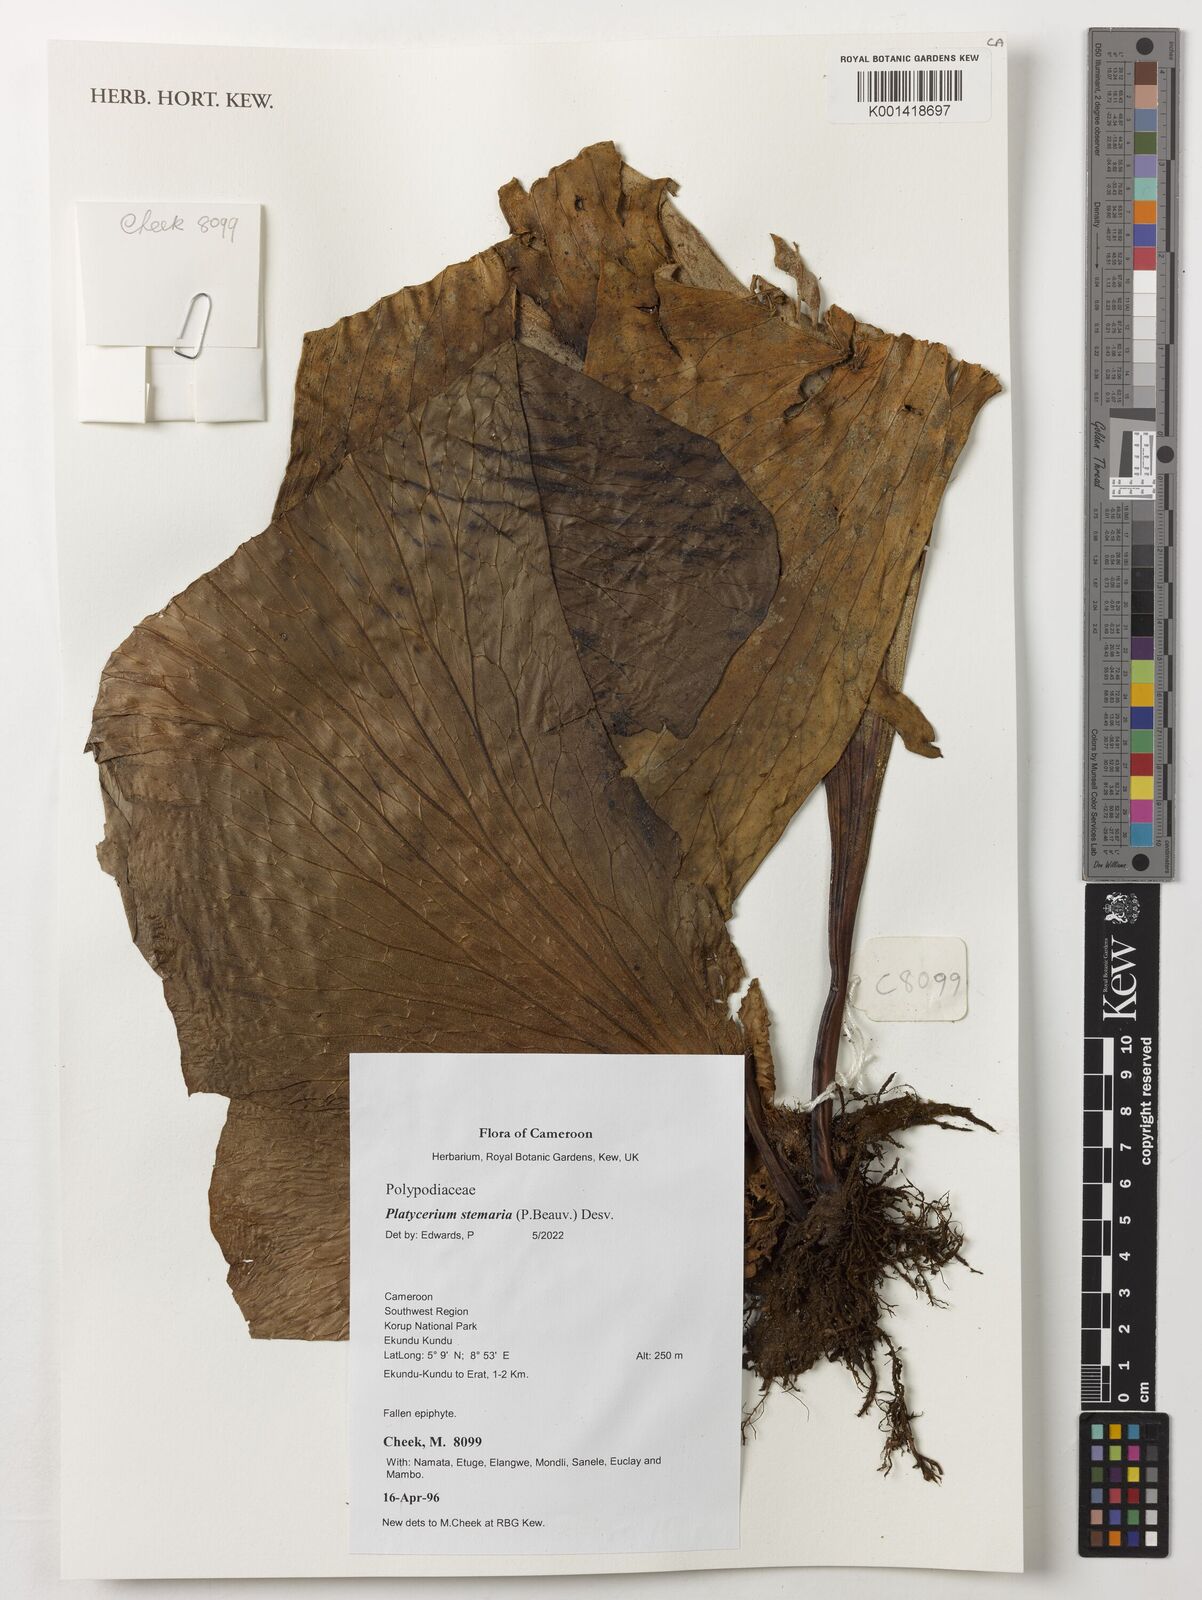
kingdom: Plantae
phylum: Tracheophyta
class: Polypodiopsida
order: Polypodiales
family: Polypodiaceae
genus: Platycerium
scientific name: Platycerium stemaria
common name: Triangular staghorn fern
